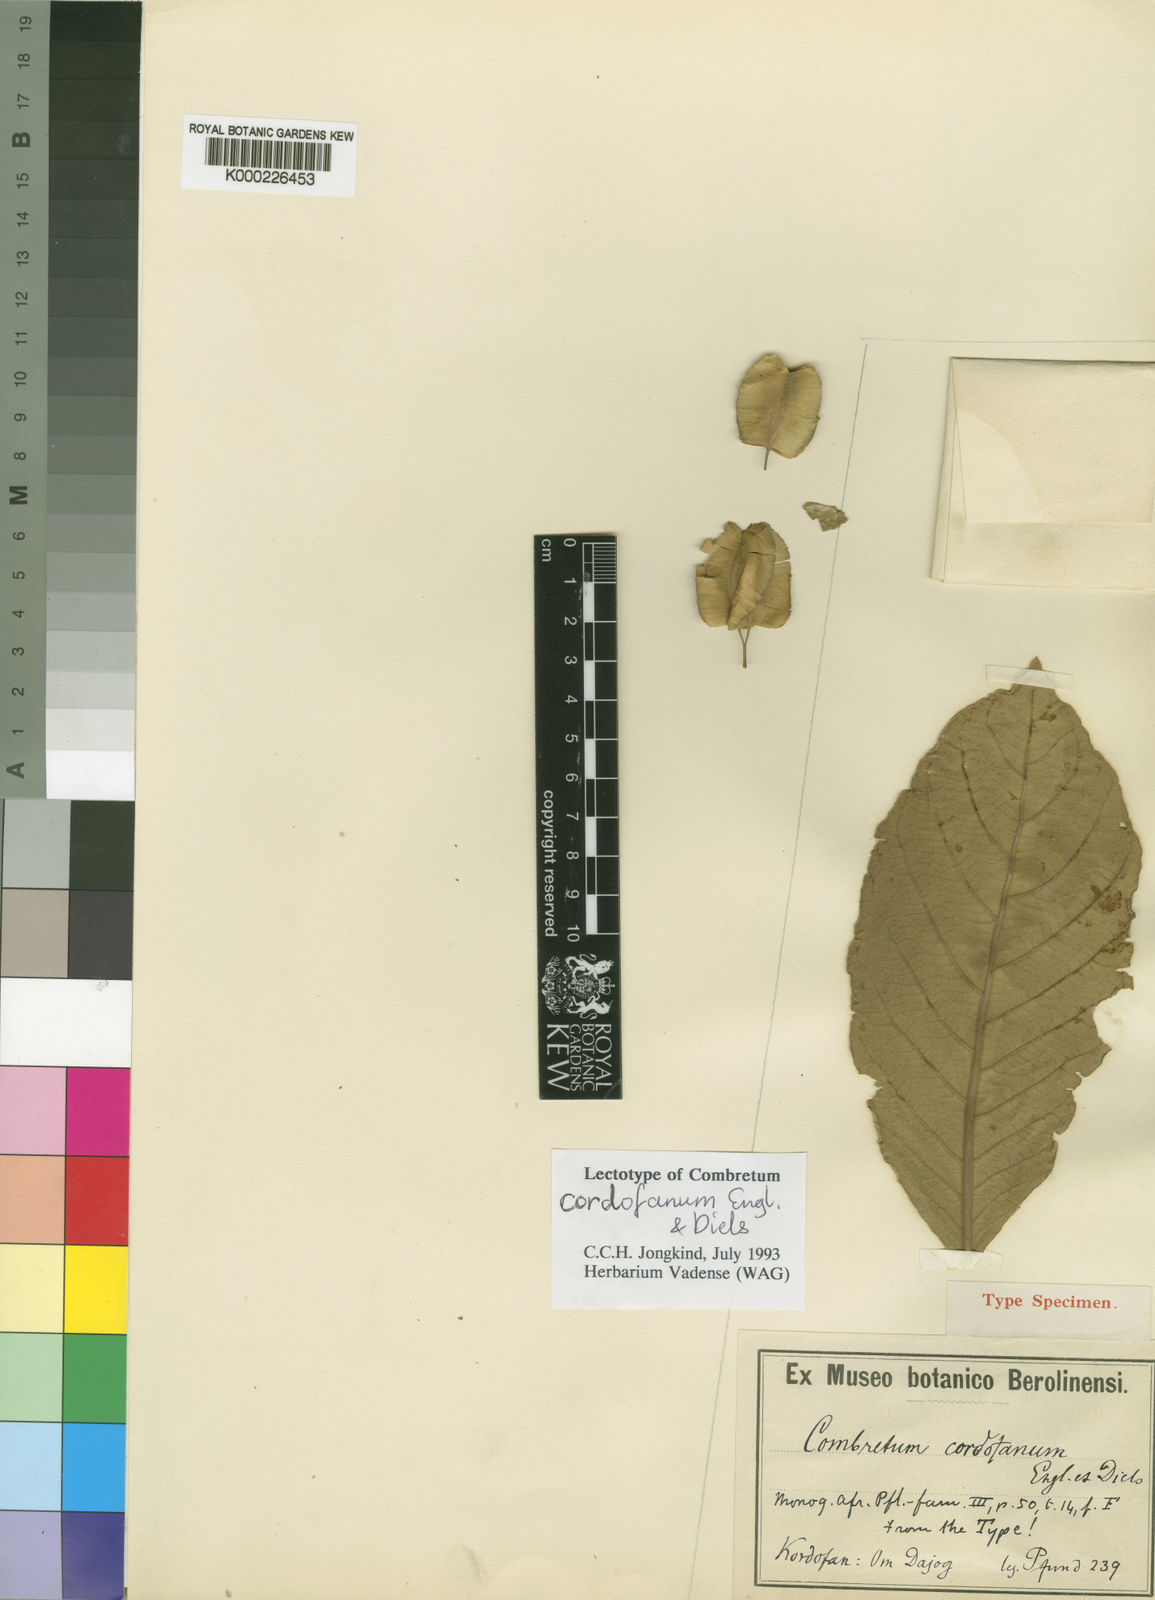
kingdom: Plantae
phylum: Tracheophyta
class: Magnoliopsida
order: Myrtales
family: Combretaceae
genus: Combretum
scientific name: Combretum glutinosum
